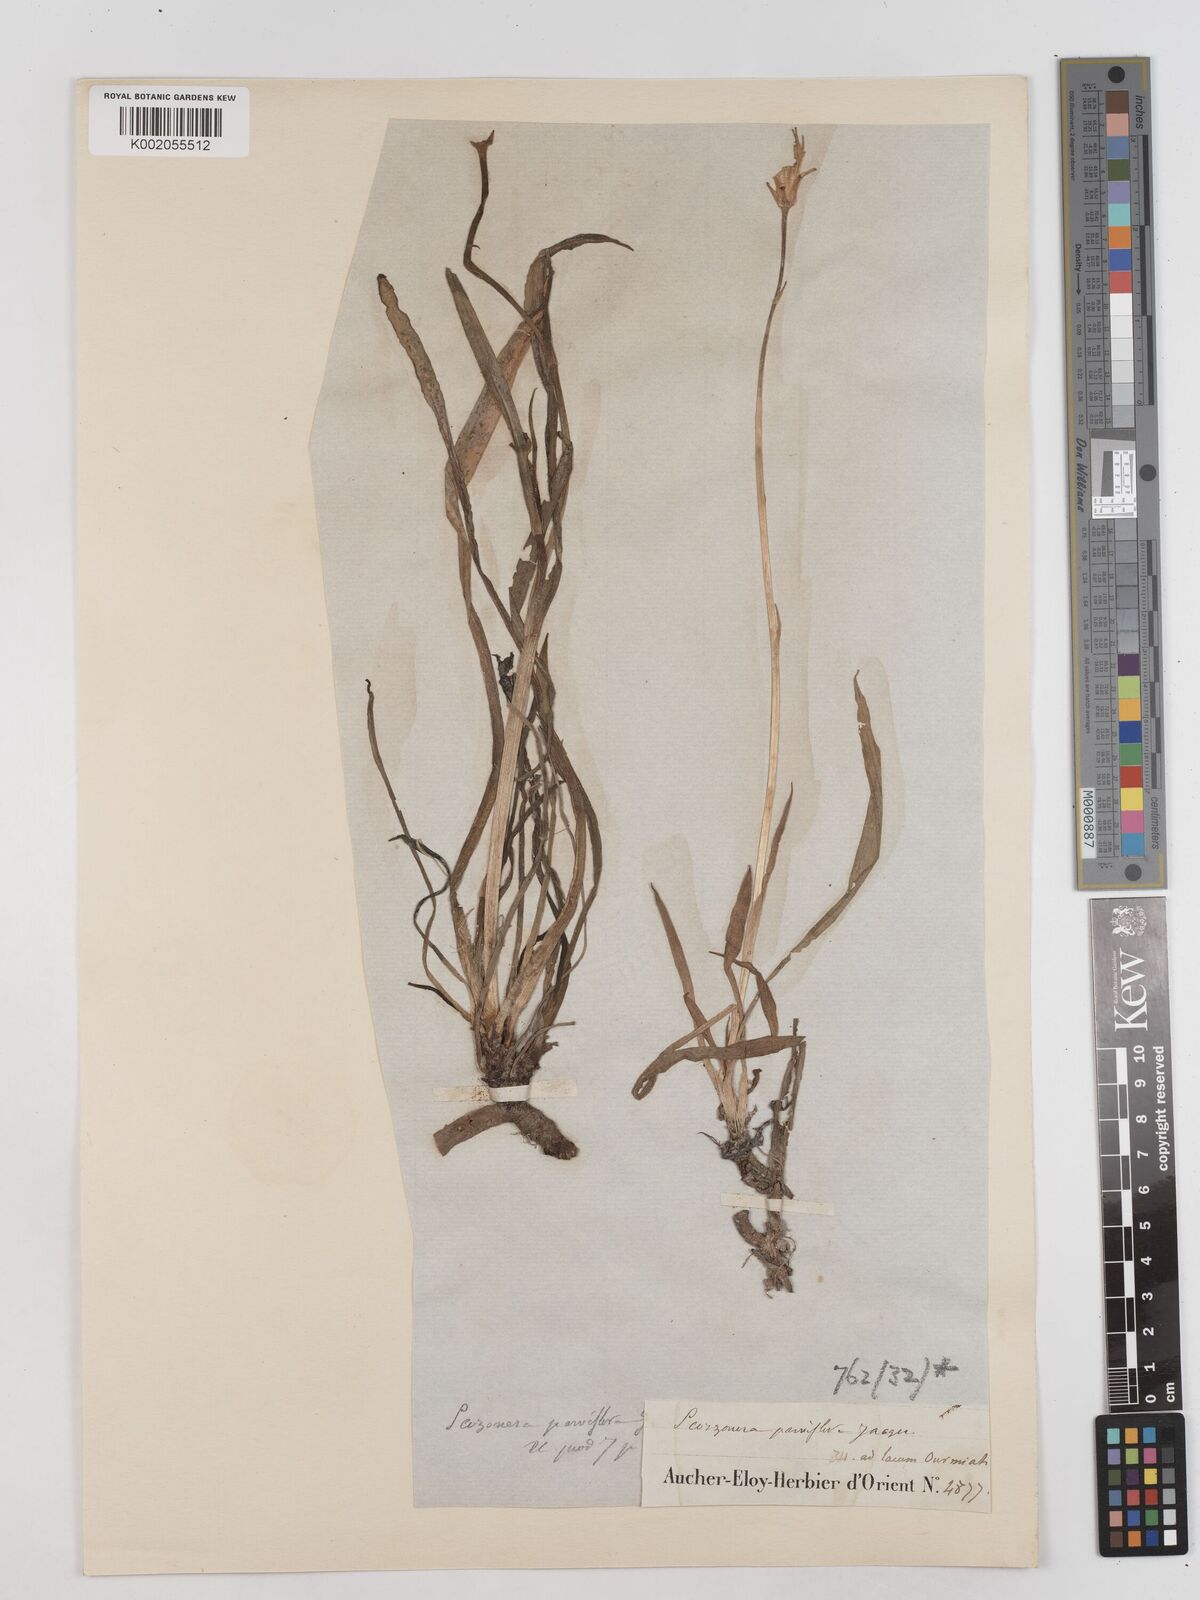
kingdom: Plantae
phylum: Tracheophyta
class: Magnoliopsida
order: Asterales
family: Asteraceae
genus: Scorzonera
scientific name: Scorzonera parviflora
